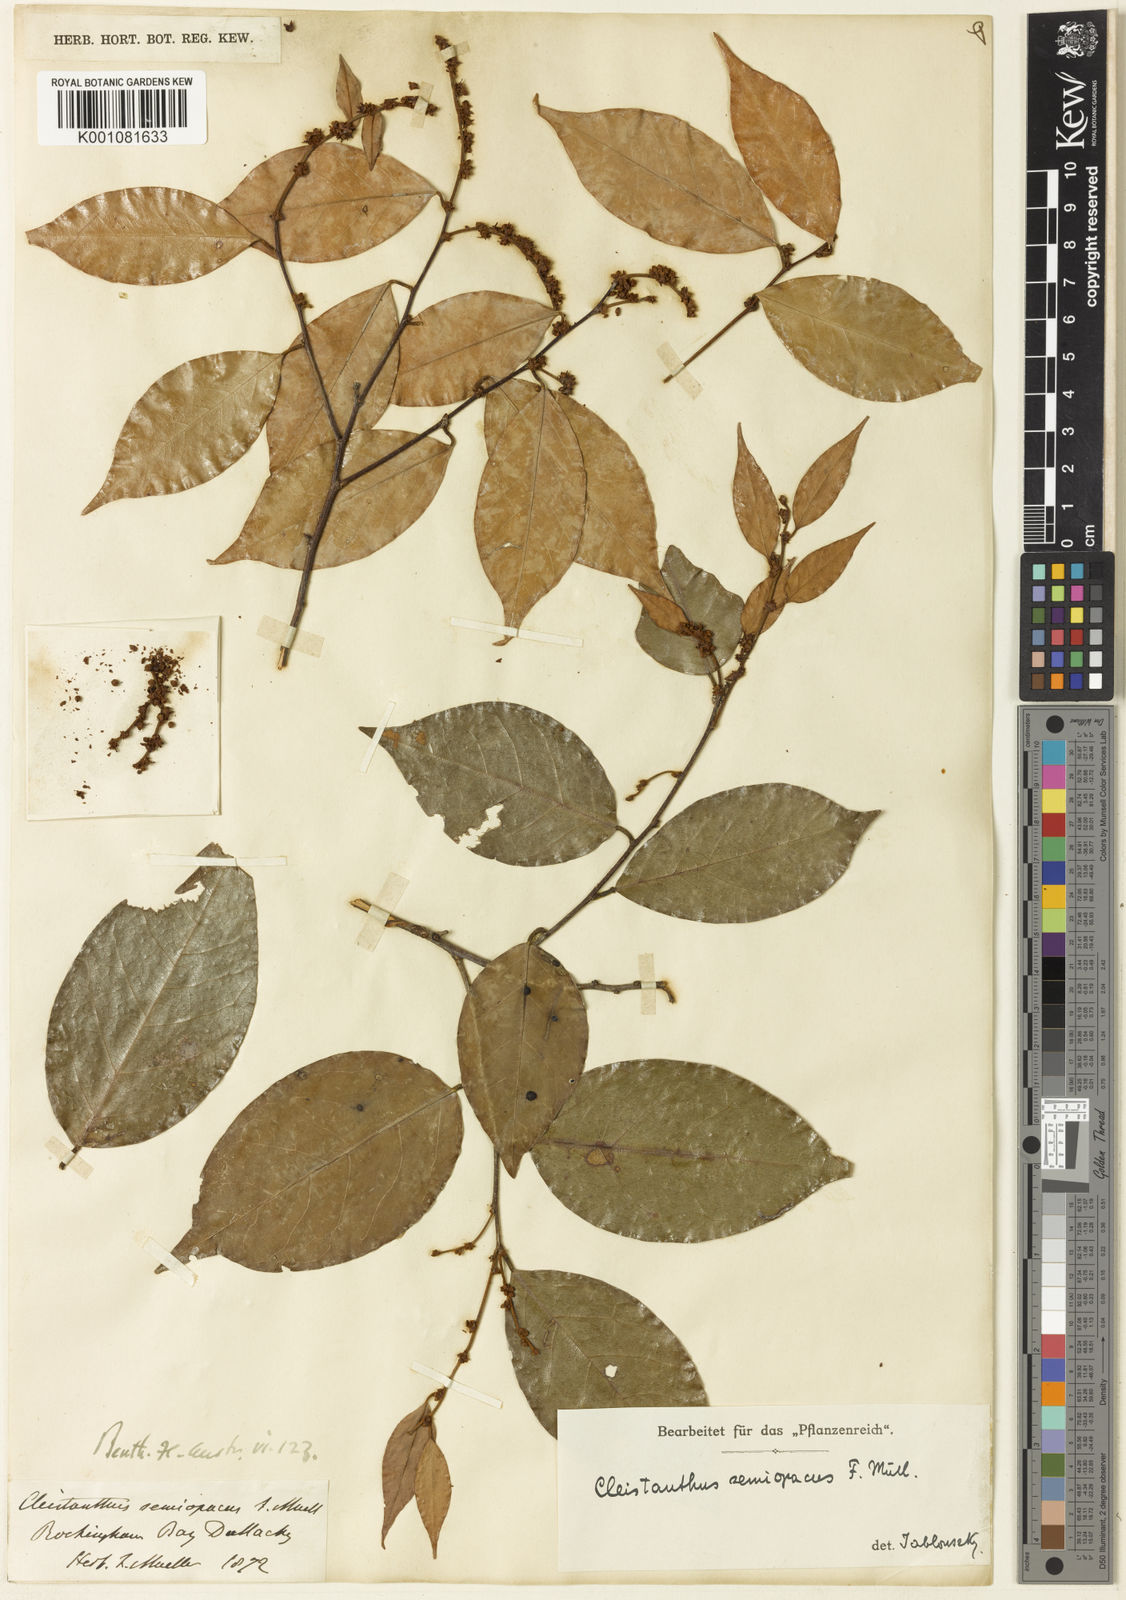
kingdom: Plantae
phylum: Tracheophyta
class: Magnoliopsida
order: Malpighiales
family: Phyllanthaceae
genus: Cleistanthus
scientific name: Cleistanthus semiopacus
